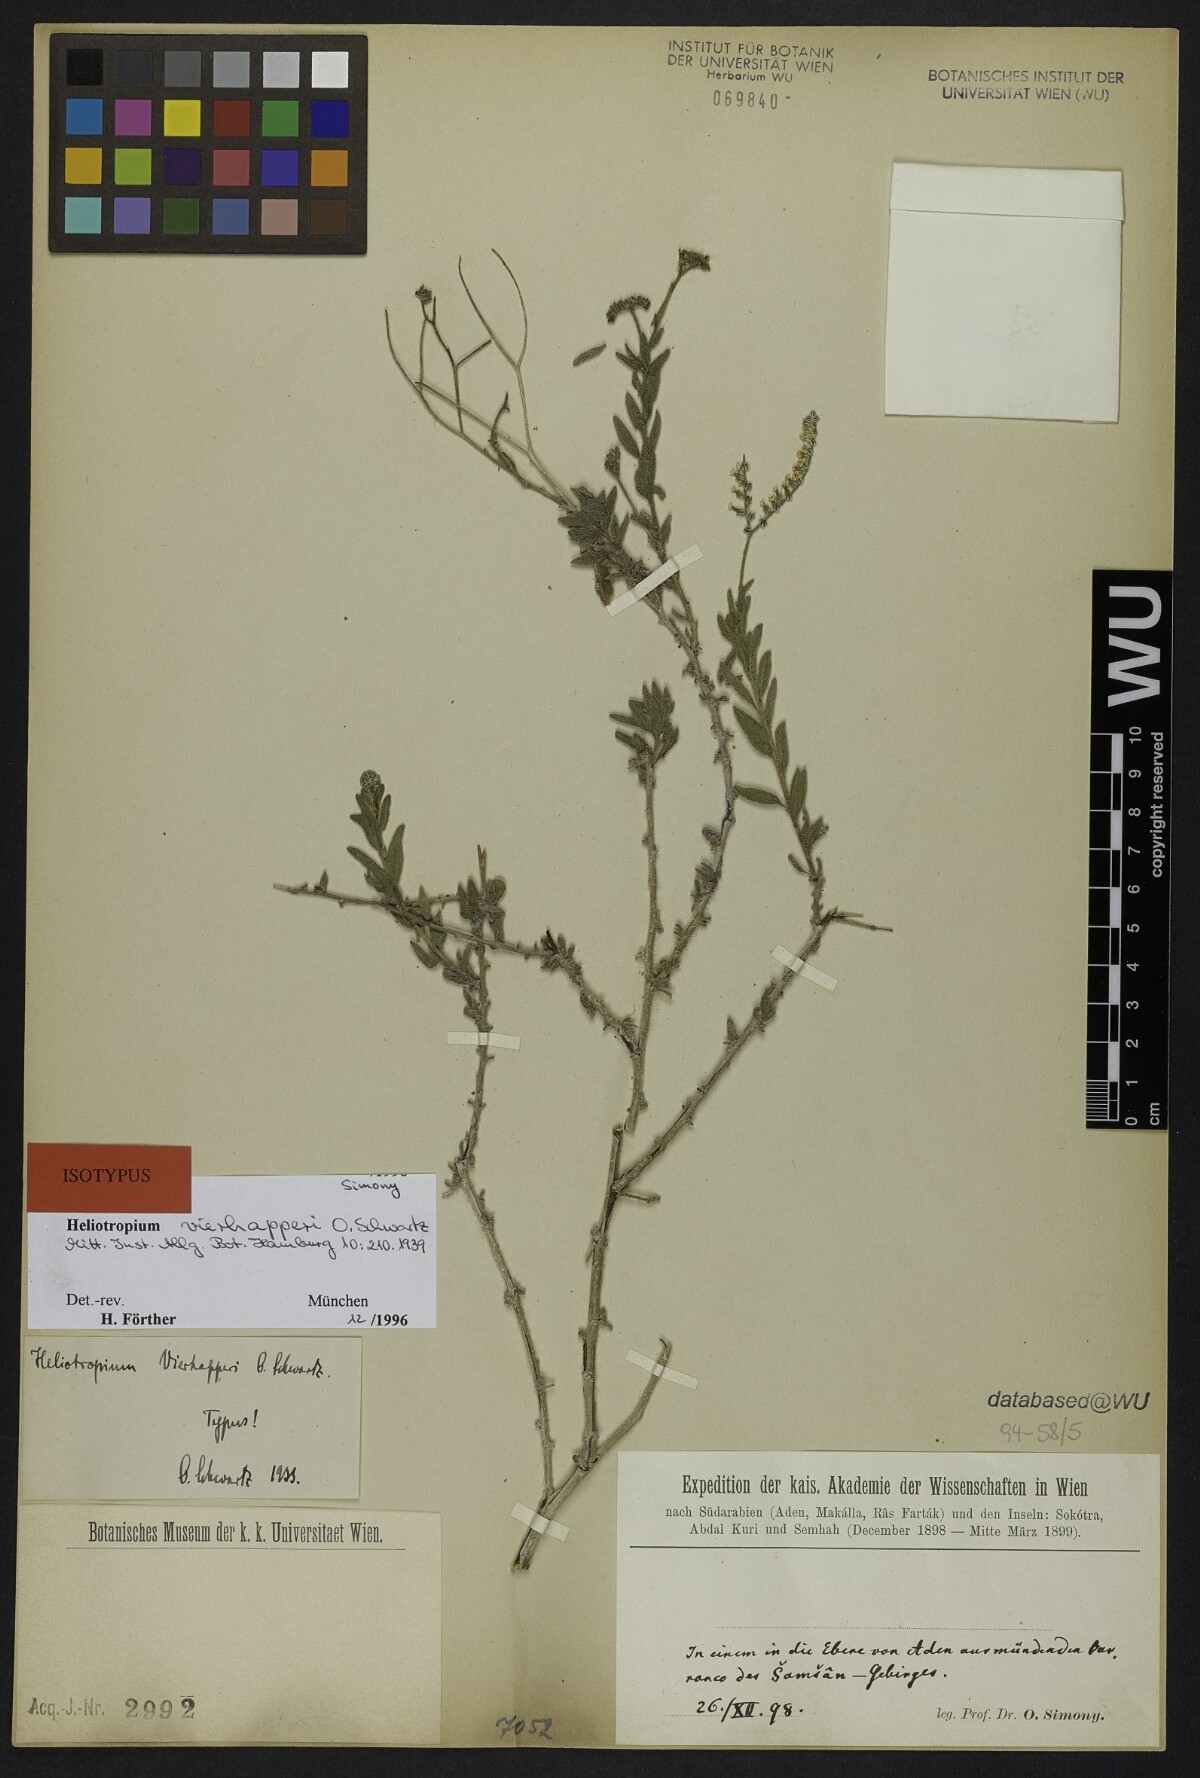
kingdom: Plantae
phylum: Tracheophyta
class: Magnoliopsida
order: Boraginales
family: Heliotropiaceae
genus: Heliotropium
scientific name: Heliotropium ophioglossum
